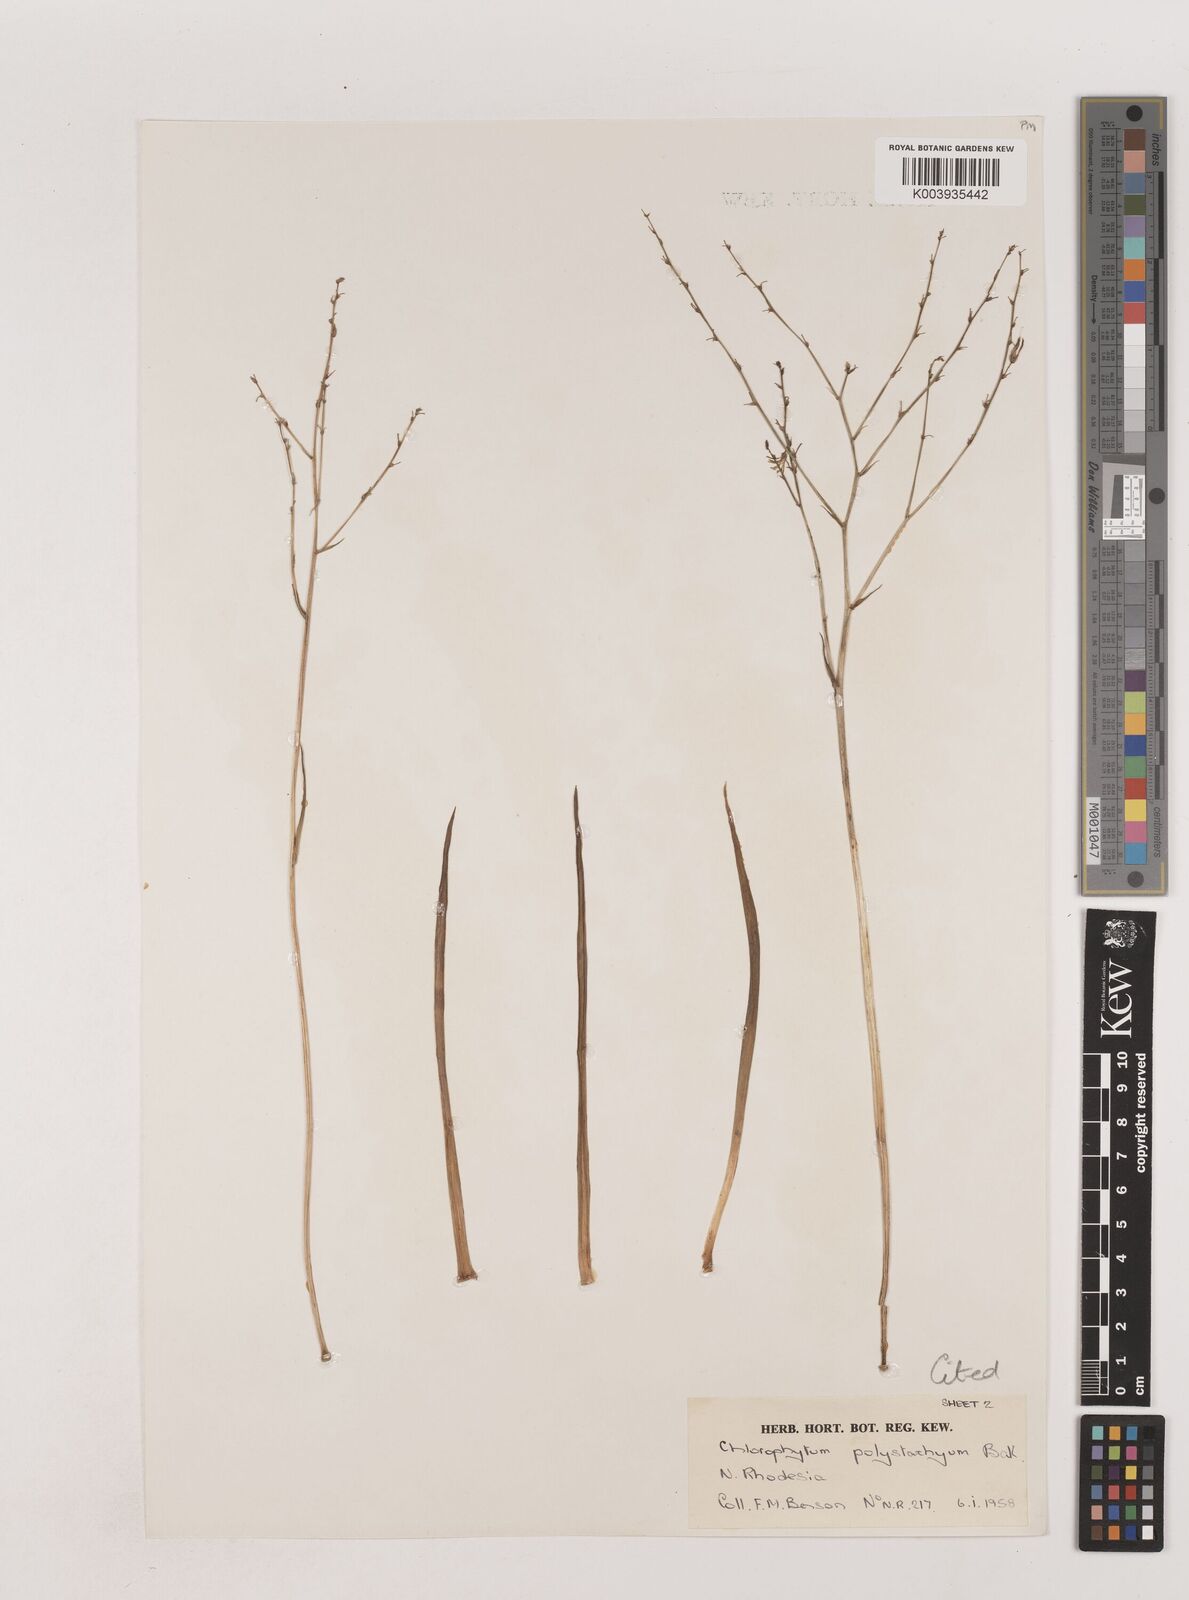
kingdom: Plantae
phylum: Tracheophyta
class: Liliopsida
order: Asparagales
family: Asparagaceae
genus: Chlorophytum
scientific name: Chlorophytum polystachys
